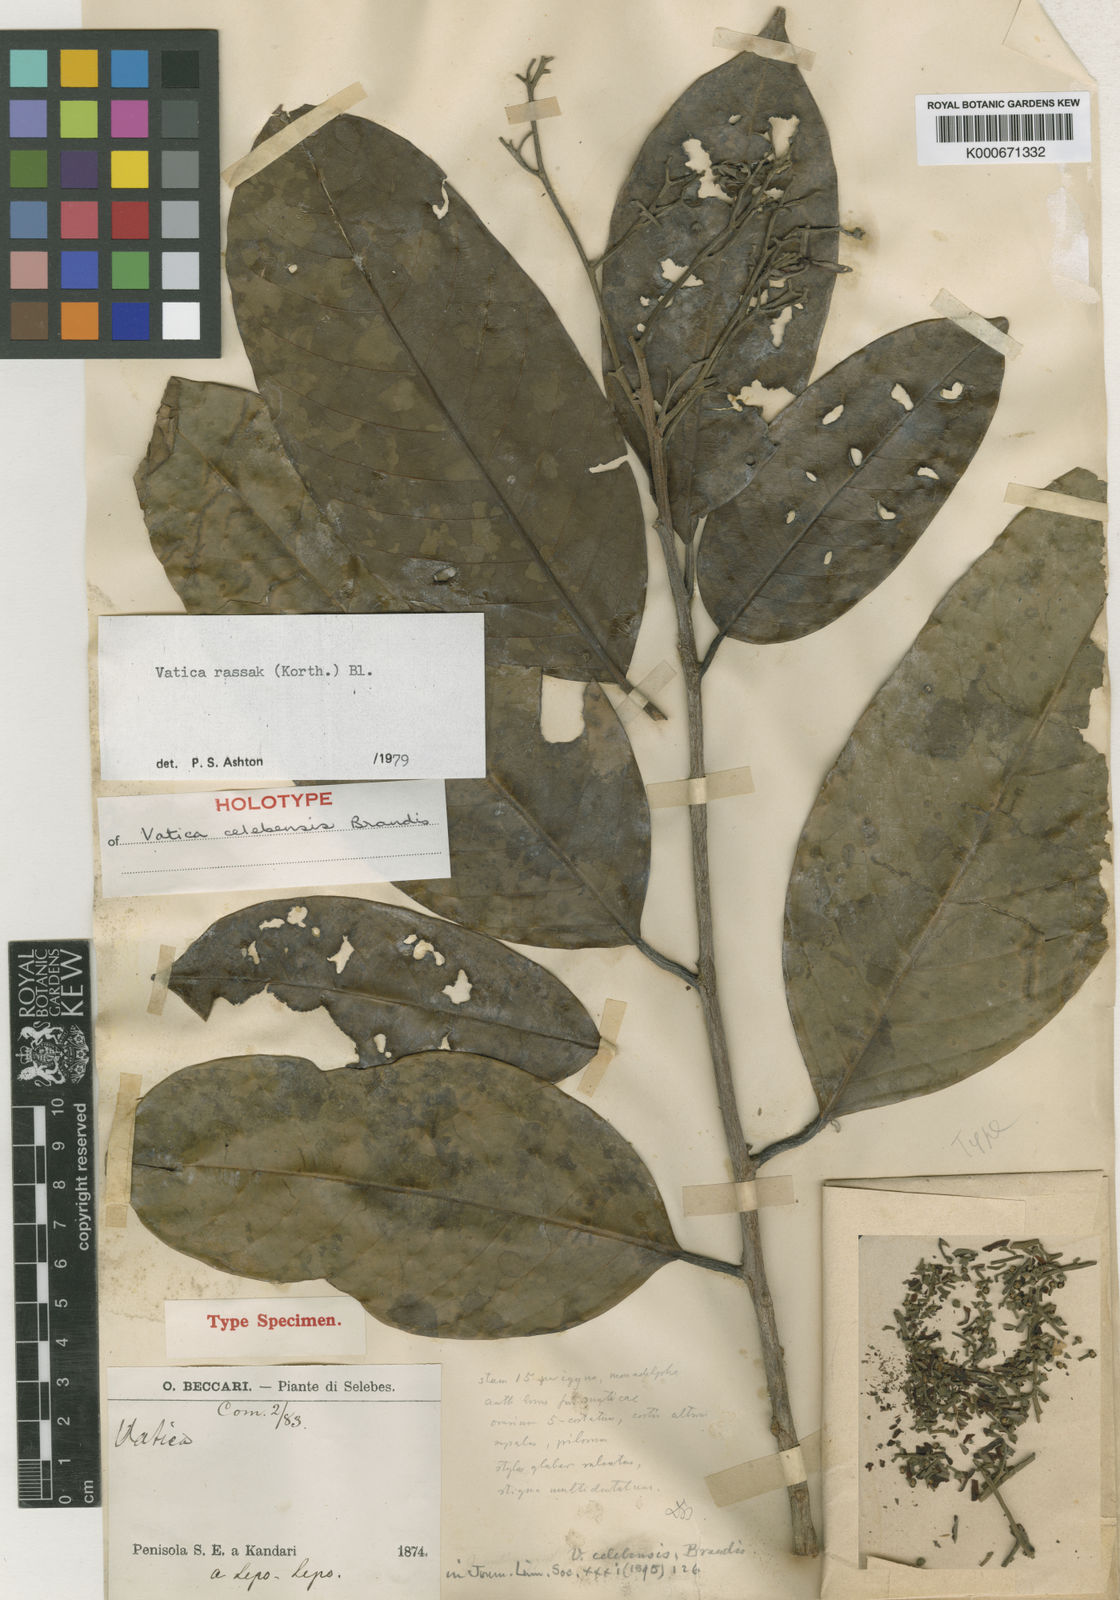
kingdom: Plantae
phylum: Tracheophyta
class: Magnoliopsida
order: Malvales
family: Dipterocarpaceae
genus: Vatica
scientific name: Vatica rassak
